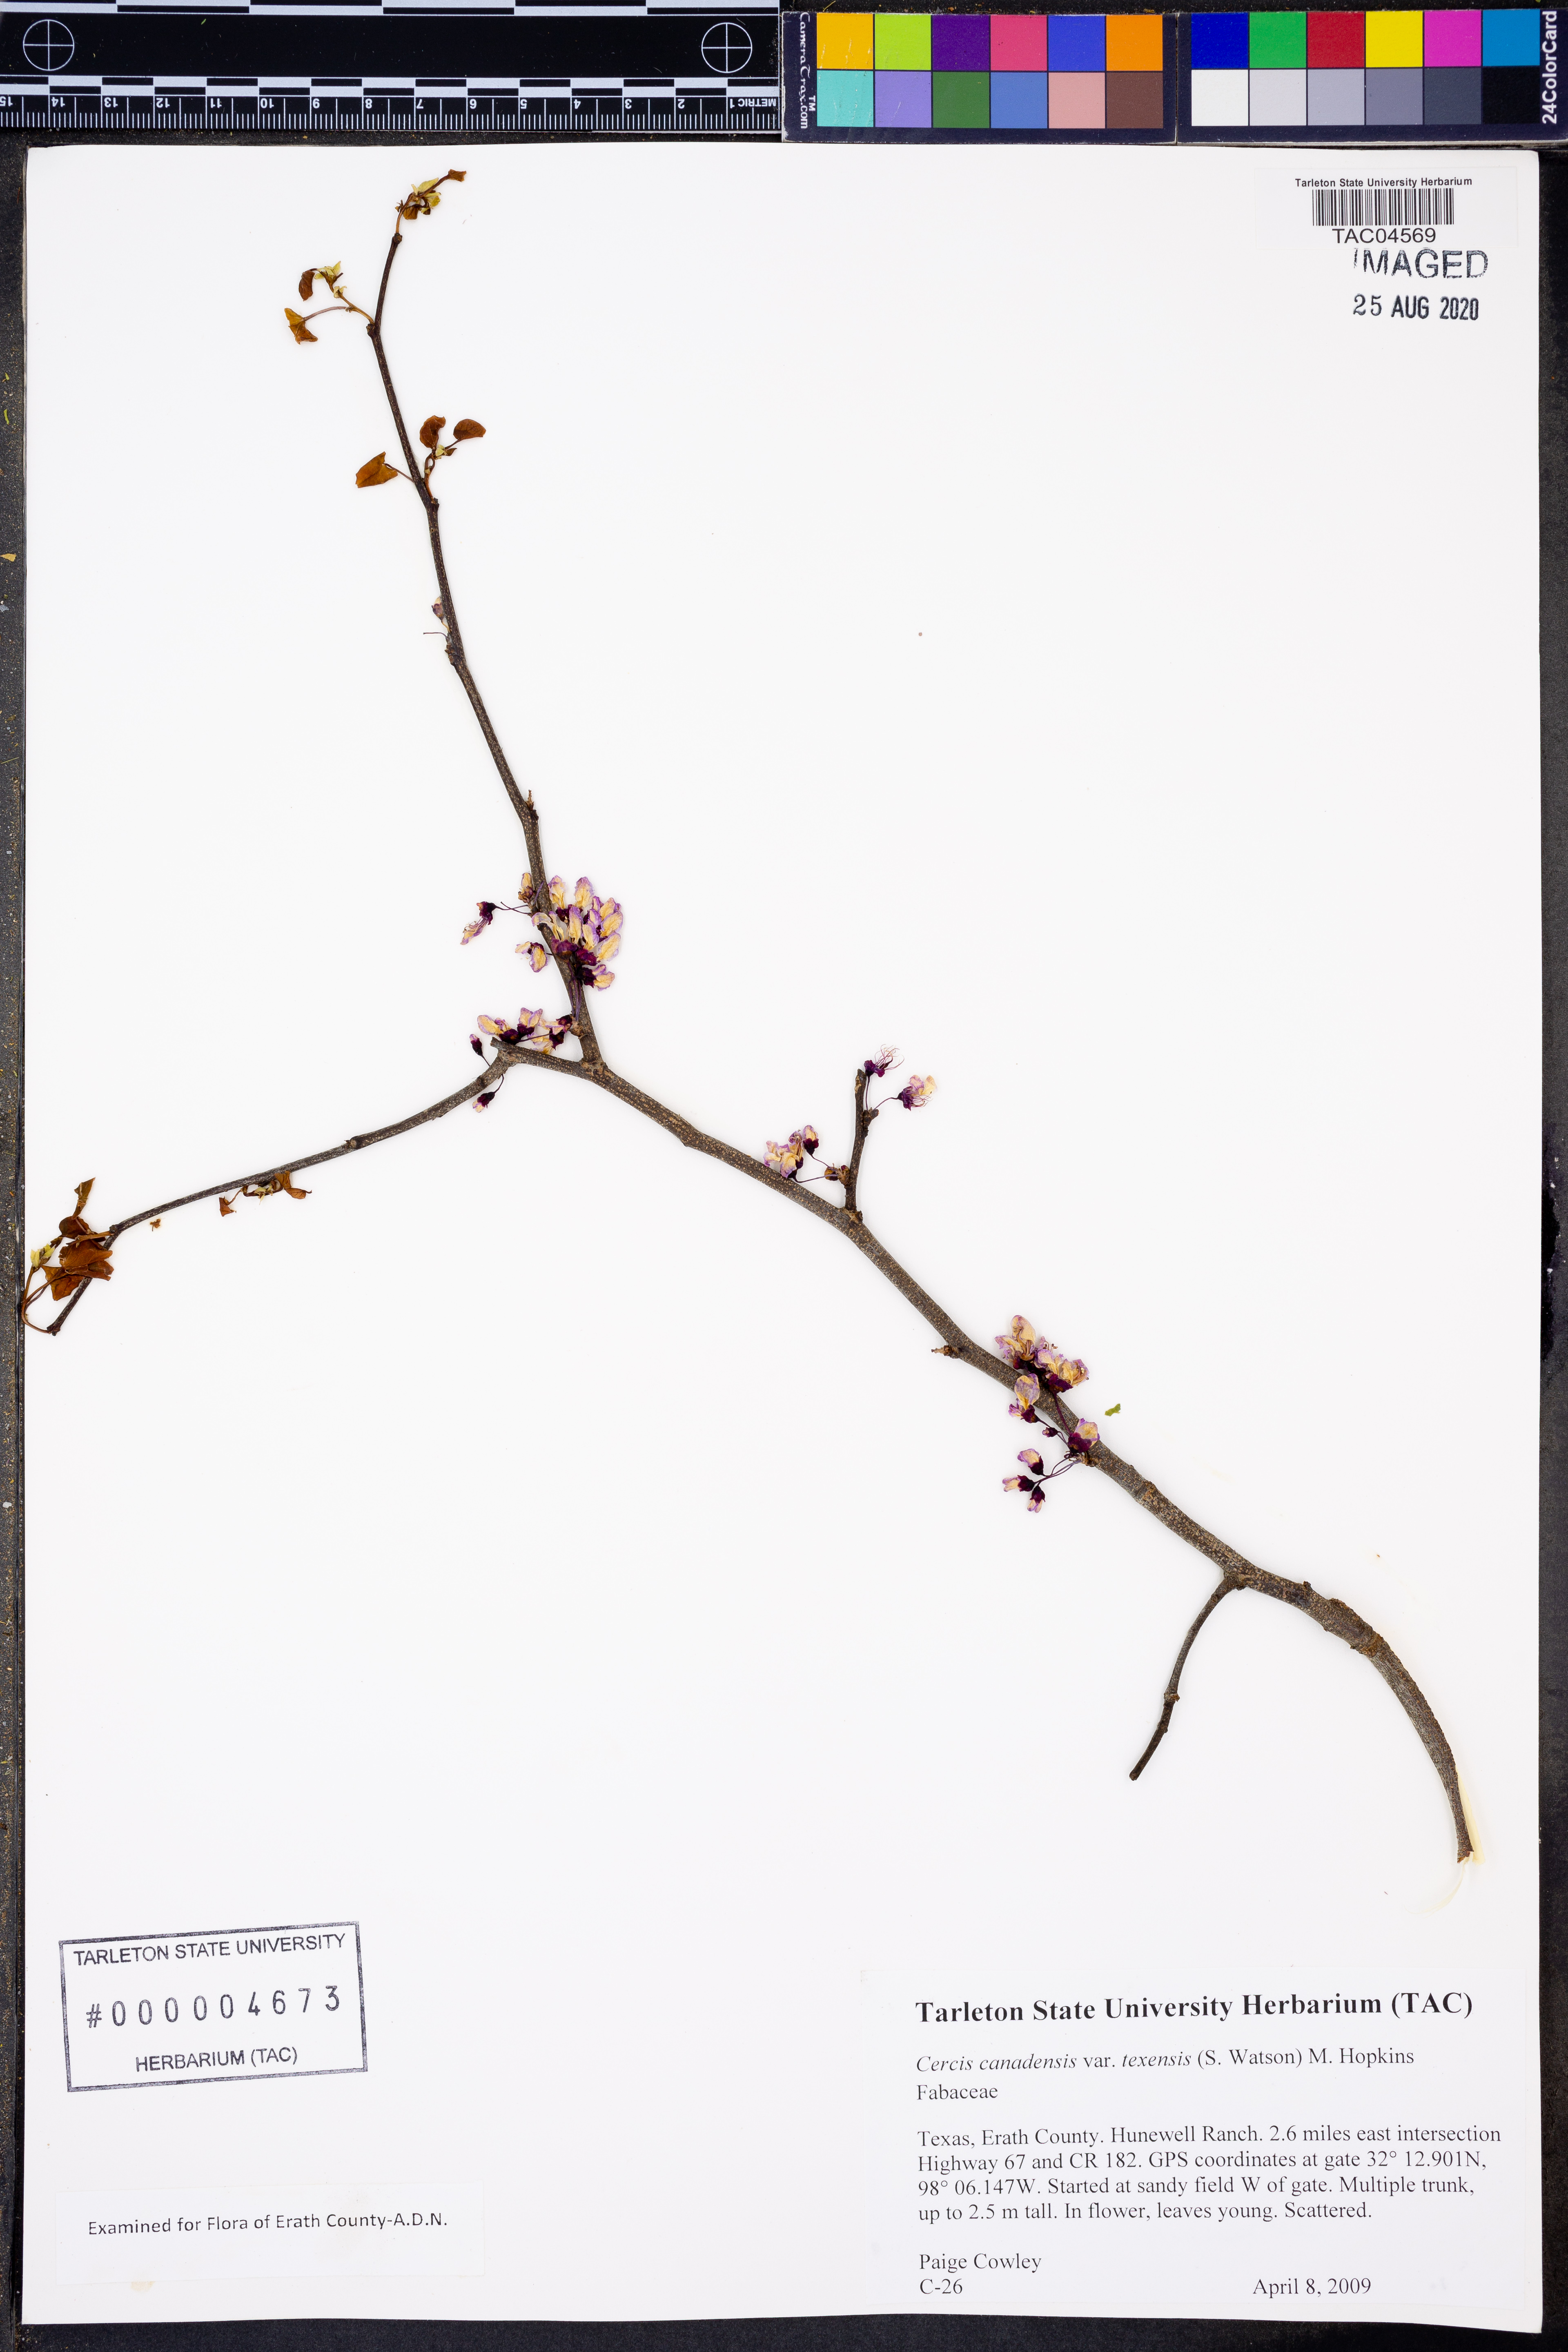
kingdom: Plantae
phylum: Tracheophyta
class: Magnoliopsida
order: Fabales
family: Fabaceae
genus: Cercis
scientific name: Cercis canadensis
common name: Eastern redbud
